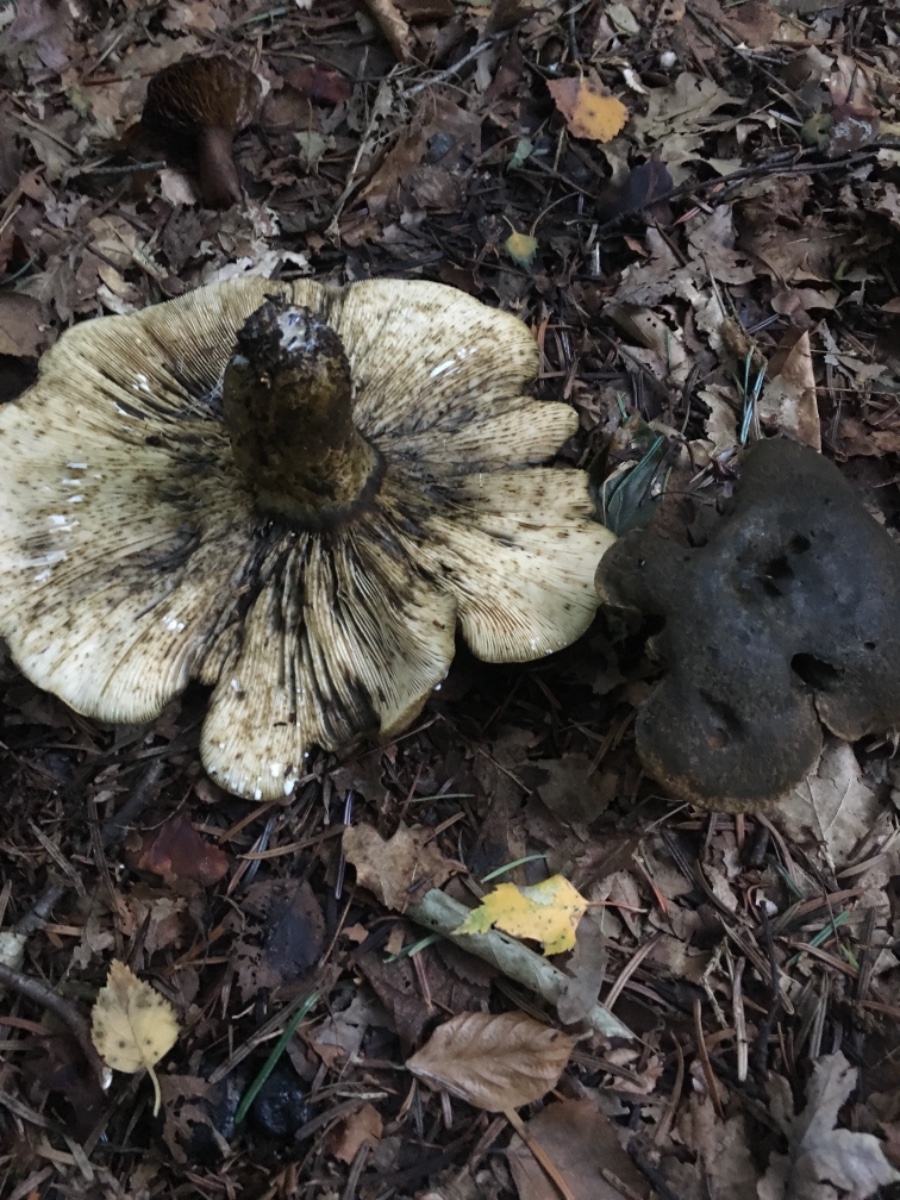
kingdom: Fungi
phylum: Basidiomycota
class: Agaricomycetes
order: Russulales
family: Russulaceae
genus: Lactarius
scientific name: Lactarius necator
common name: manddraber-mælkehat
